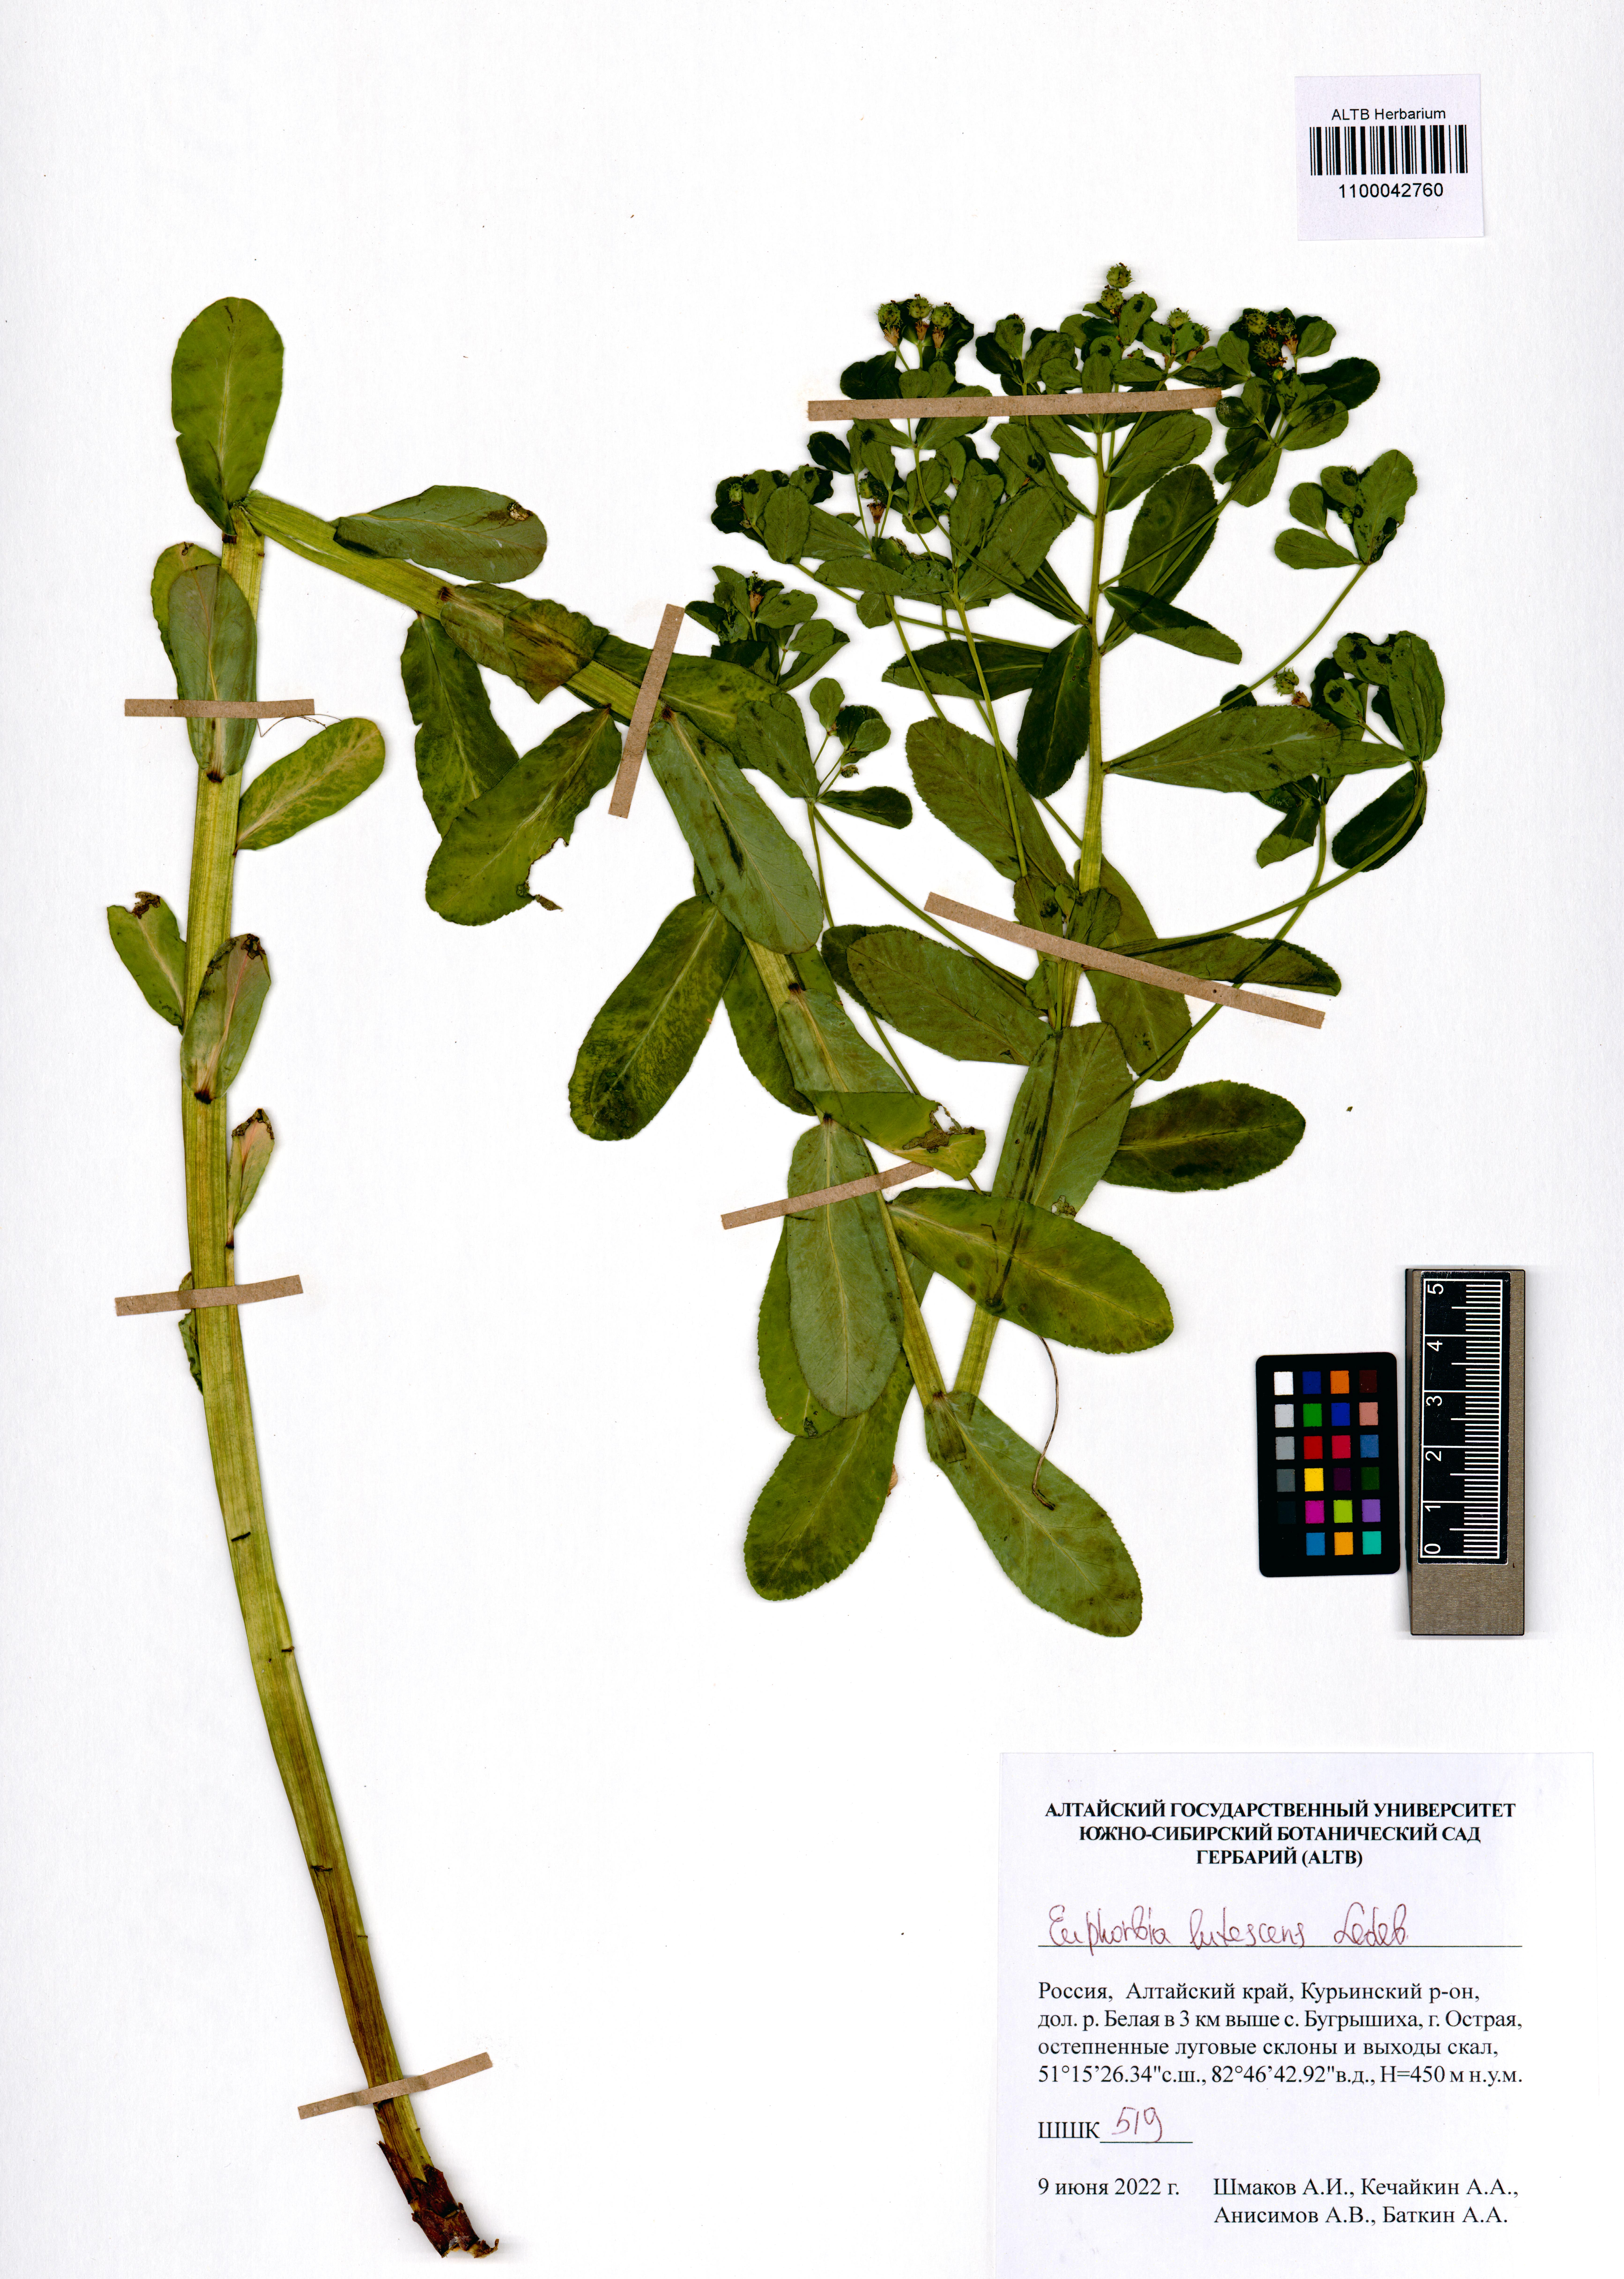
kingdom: Plantae
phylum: Tracheophyta
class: Magnoliopsida
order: Malpighiales
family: Euphorbiaceae
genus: Euphorbia
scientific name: Euphorbia pilosa
